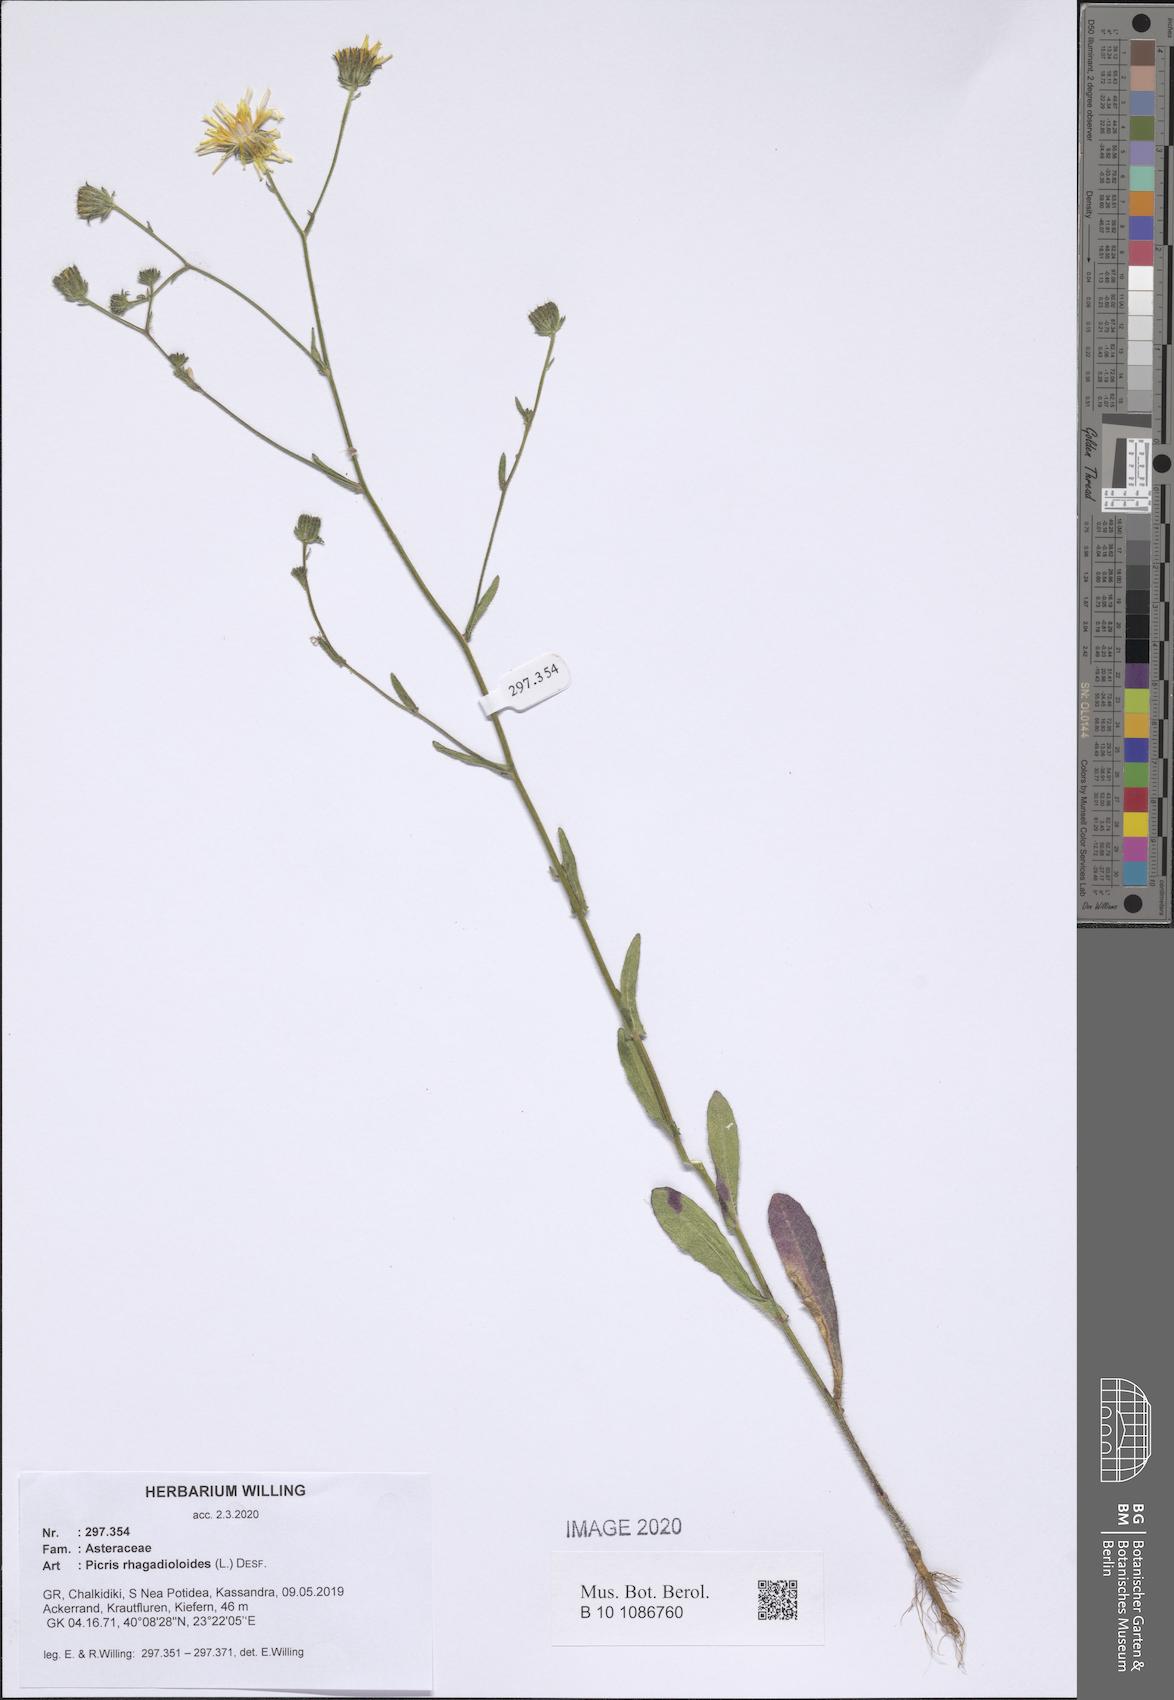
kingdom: Plantae
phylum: Tracheophyta
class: Magnoliopsida
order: Asterales
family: Asteraceae
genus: Picris
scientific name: Picris rhagadioloides
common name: Oxtongue
